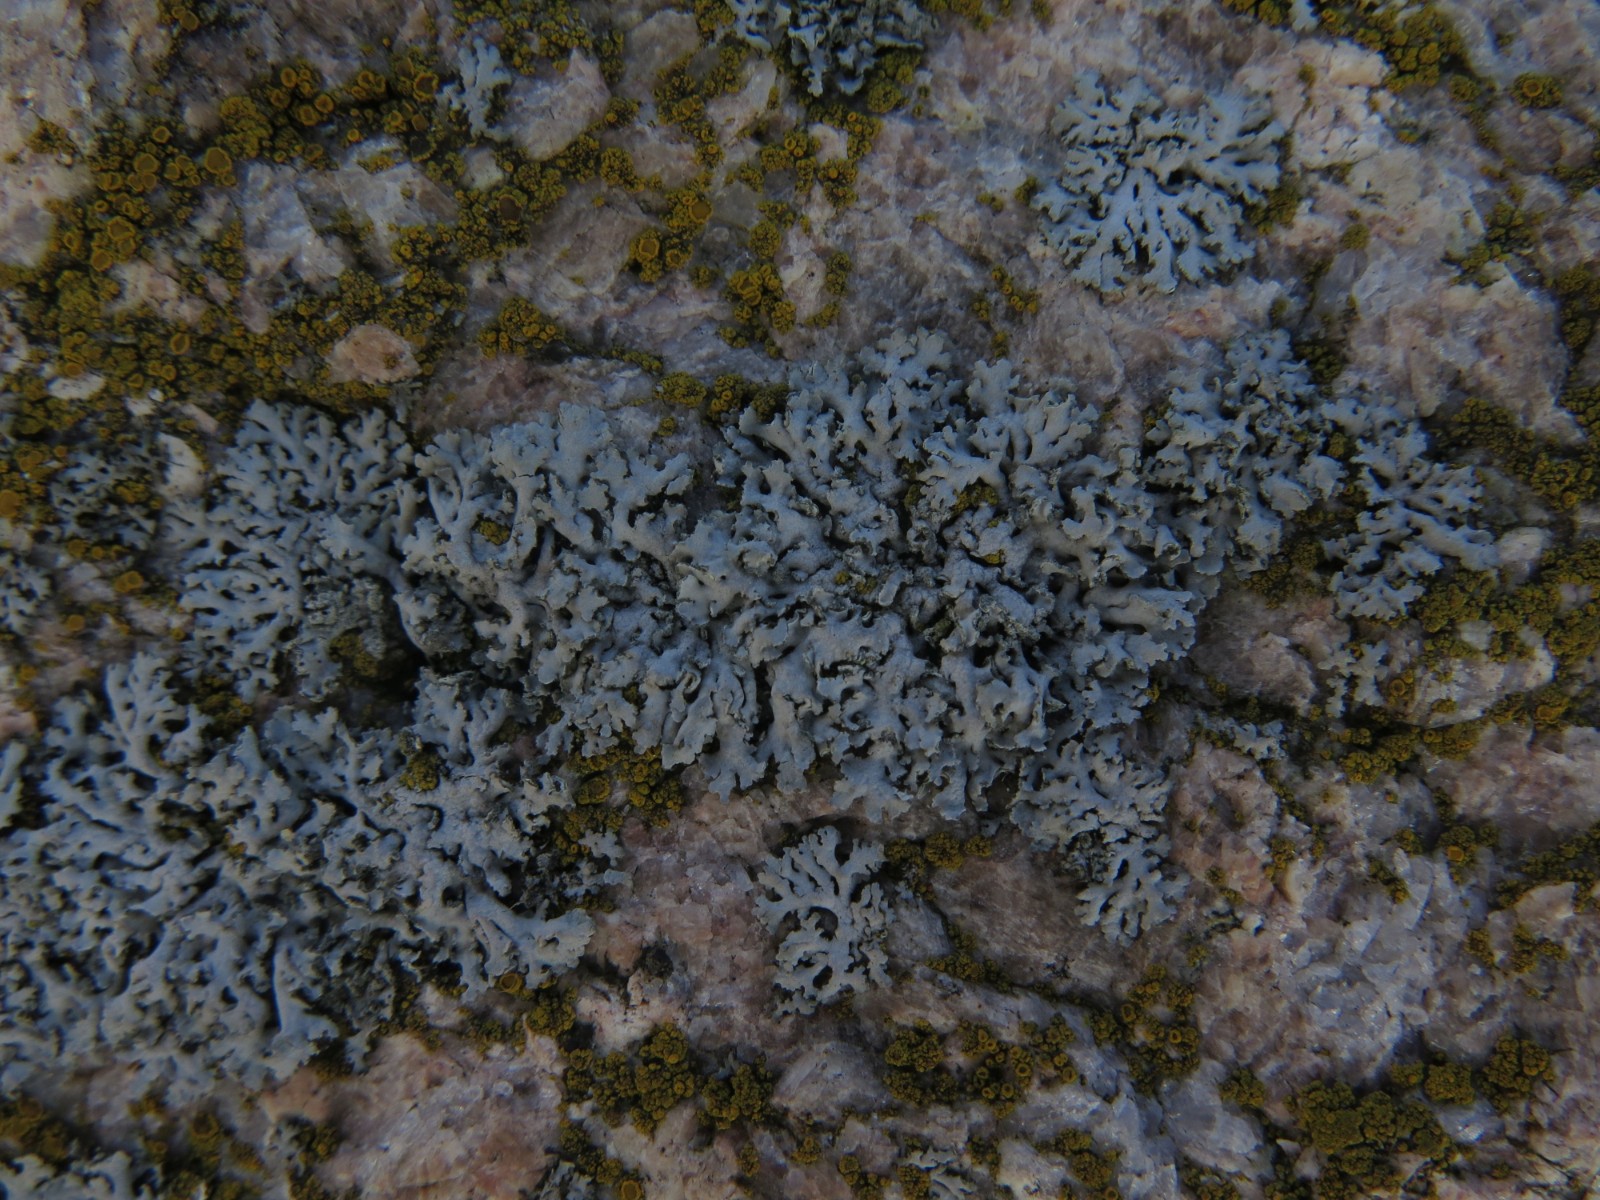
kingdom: Fungi
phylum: Ascomycota
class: Lecanoromycetes
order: Caliciales
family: Physciaceae
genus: Phaeophyscia
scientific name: Phaeophyscia orbicularis
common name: grågrøn rosetlav
